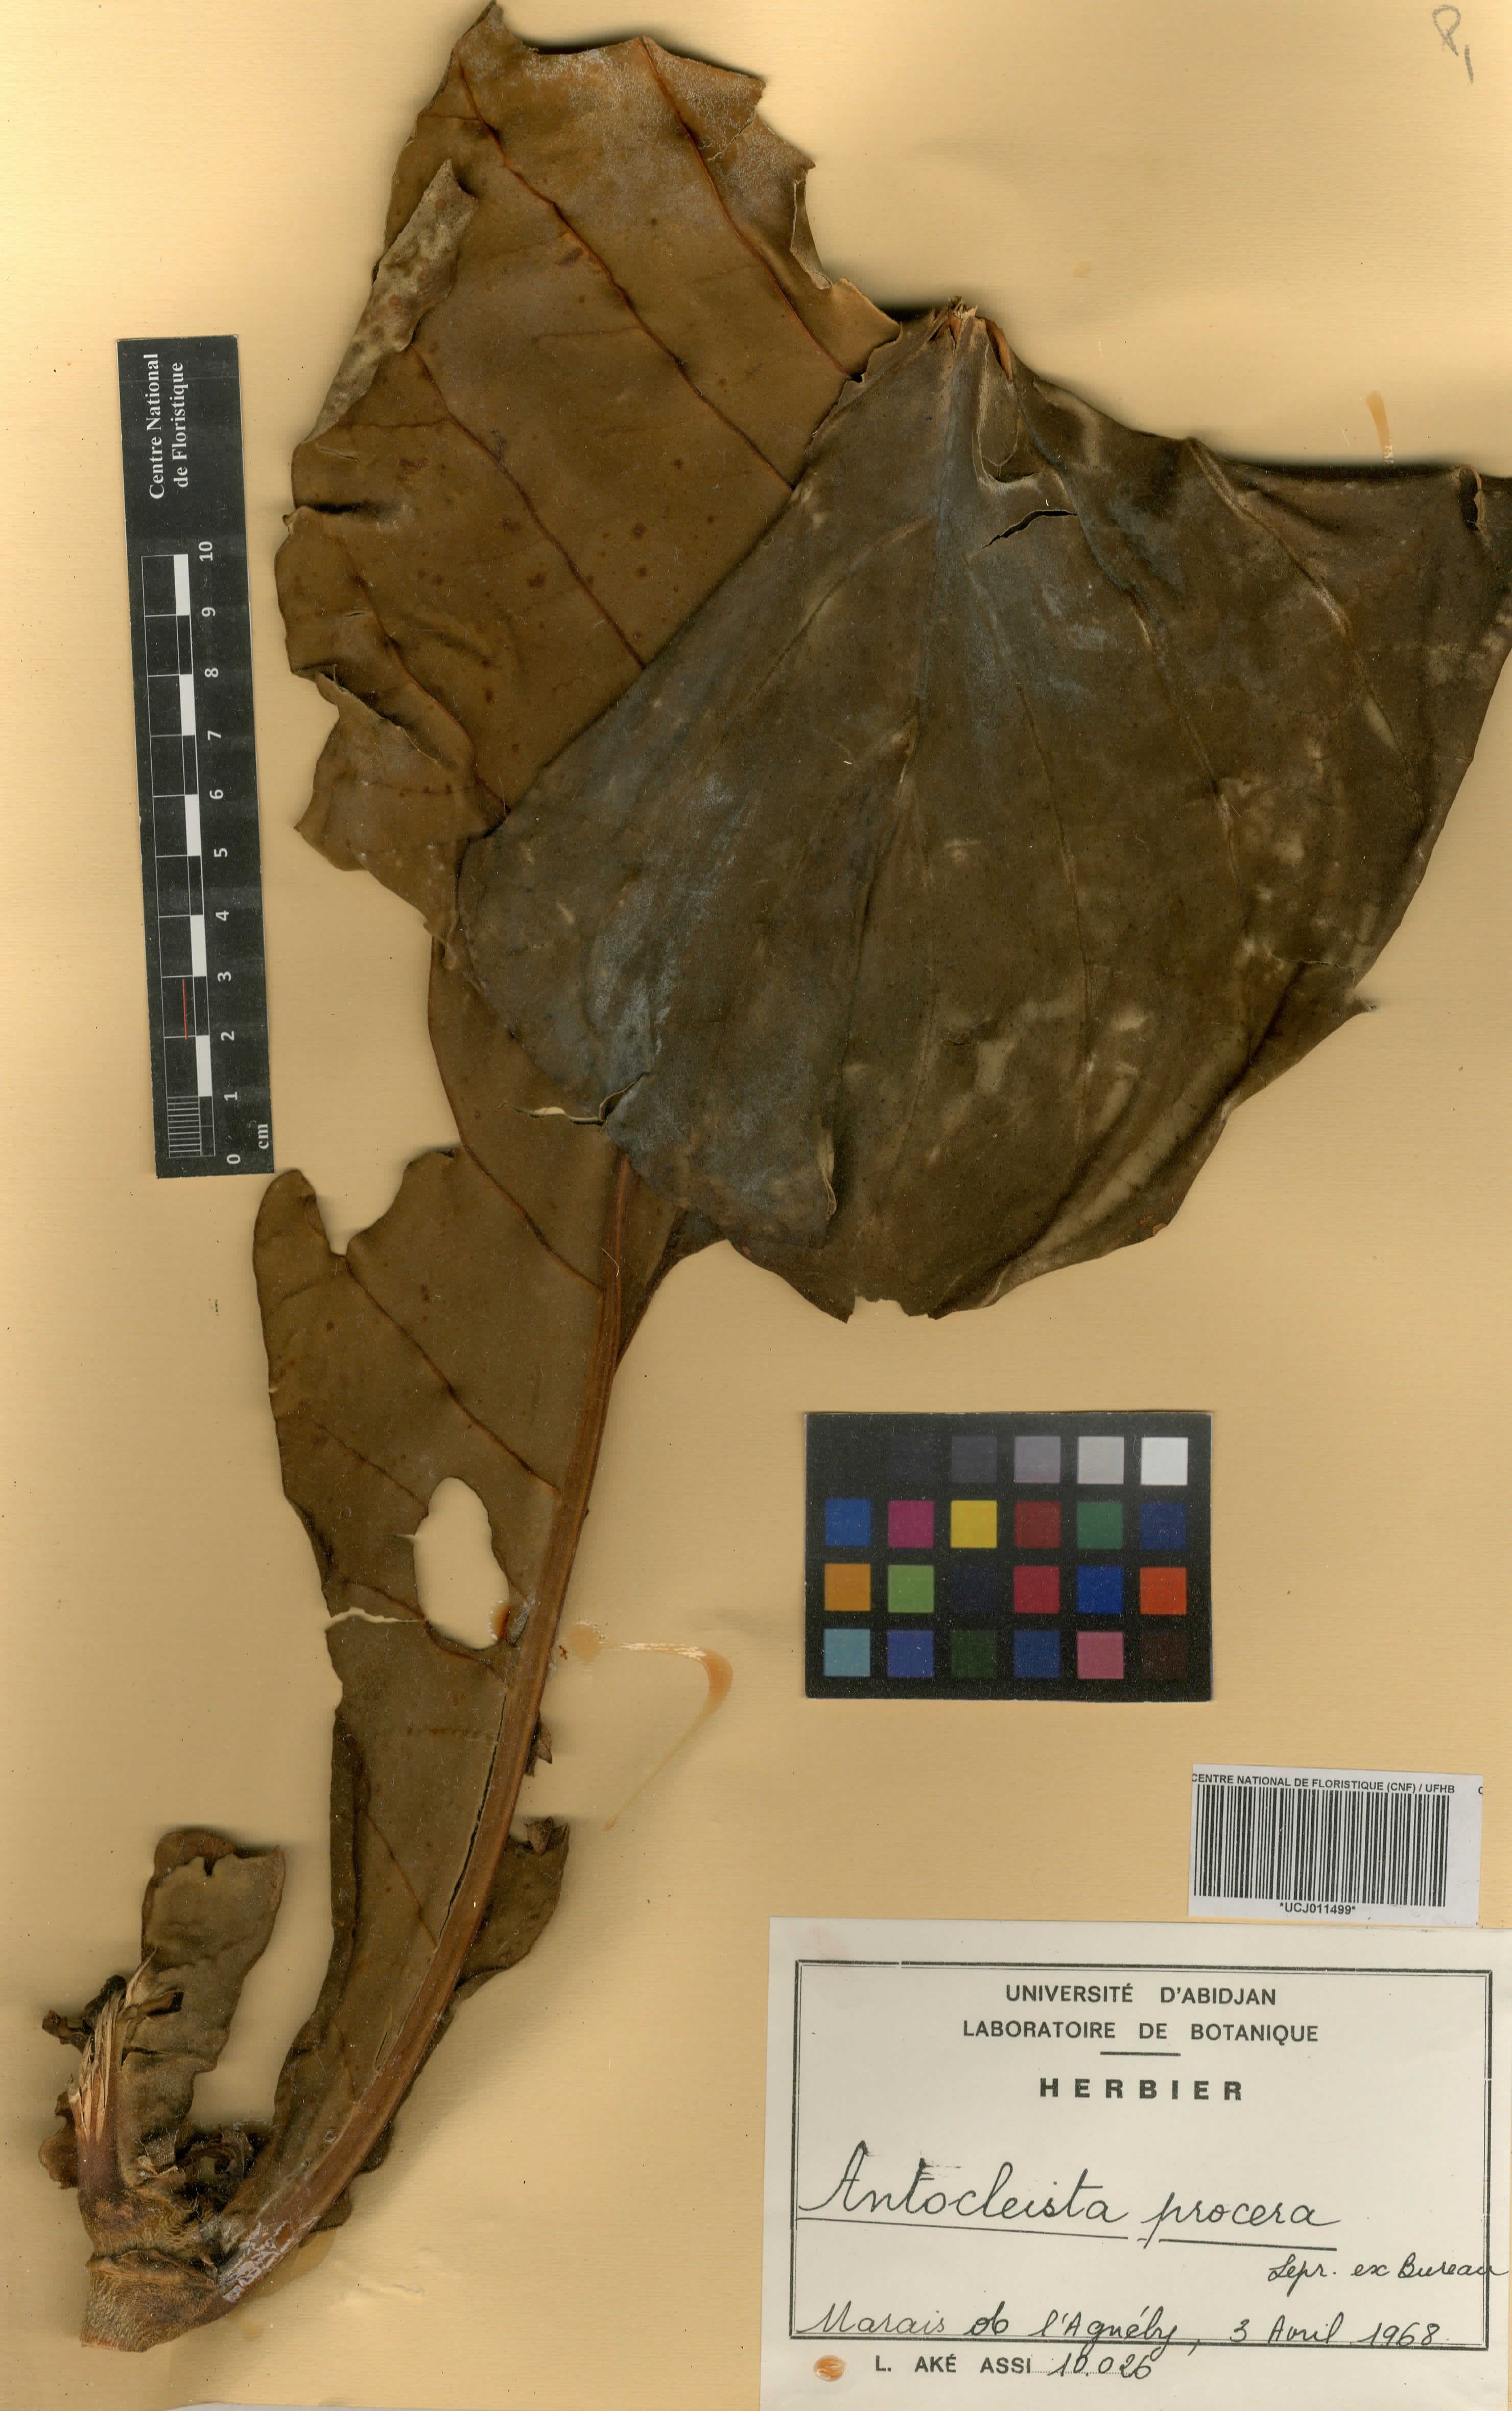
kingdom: Plantae
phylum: Tracheophyta
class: Magnoliopsida
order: Gentianales
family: Gentianaceae
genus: Anthocleista
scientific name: Anthocleista procera
